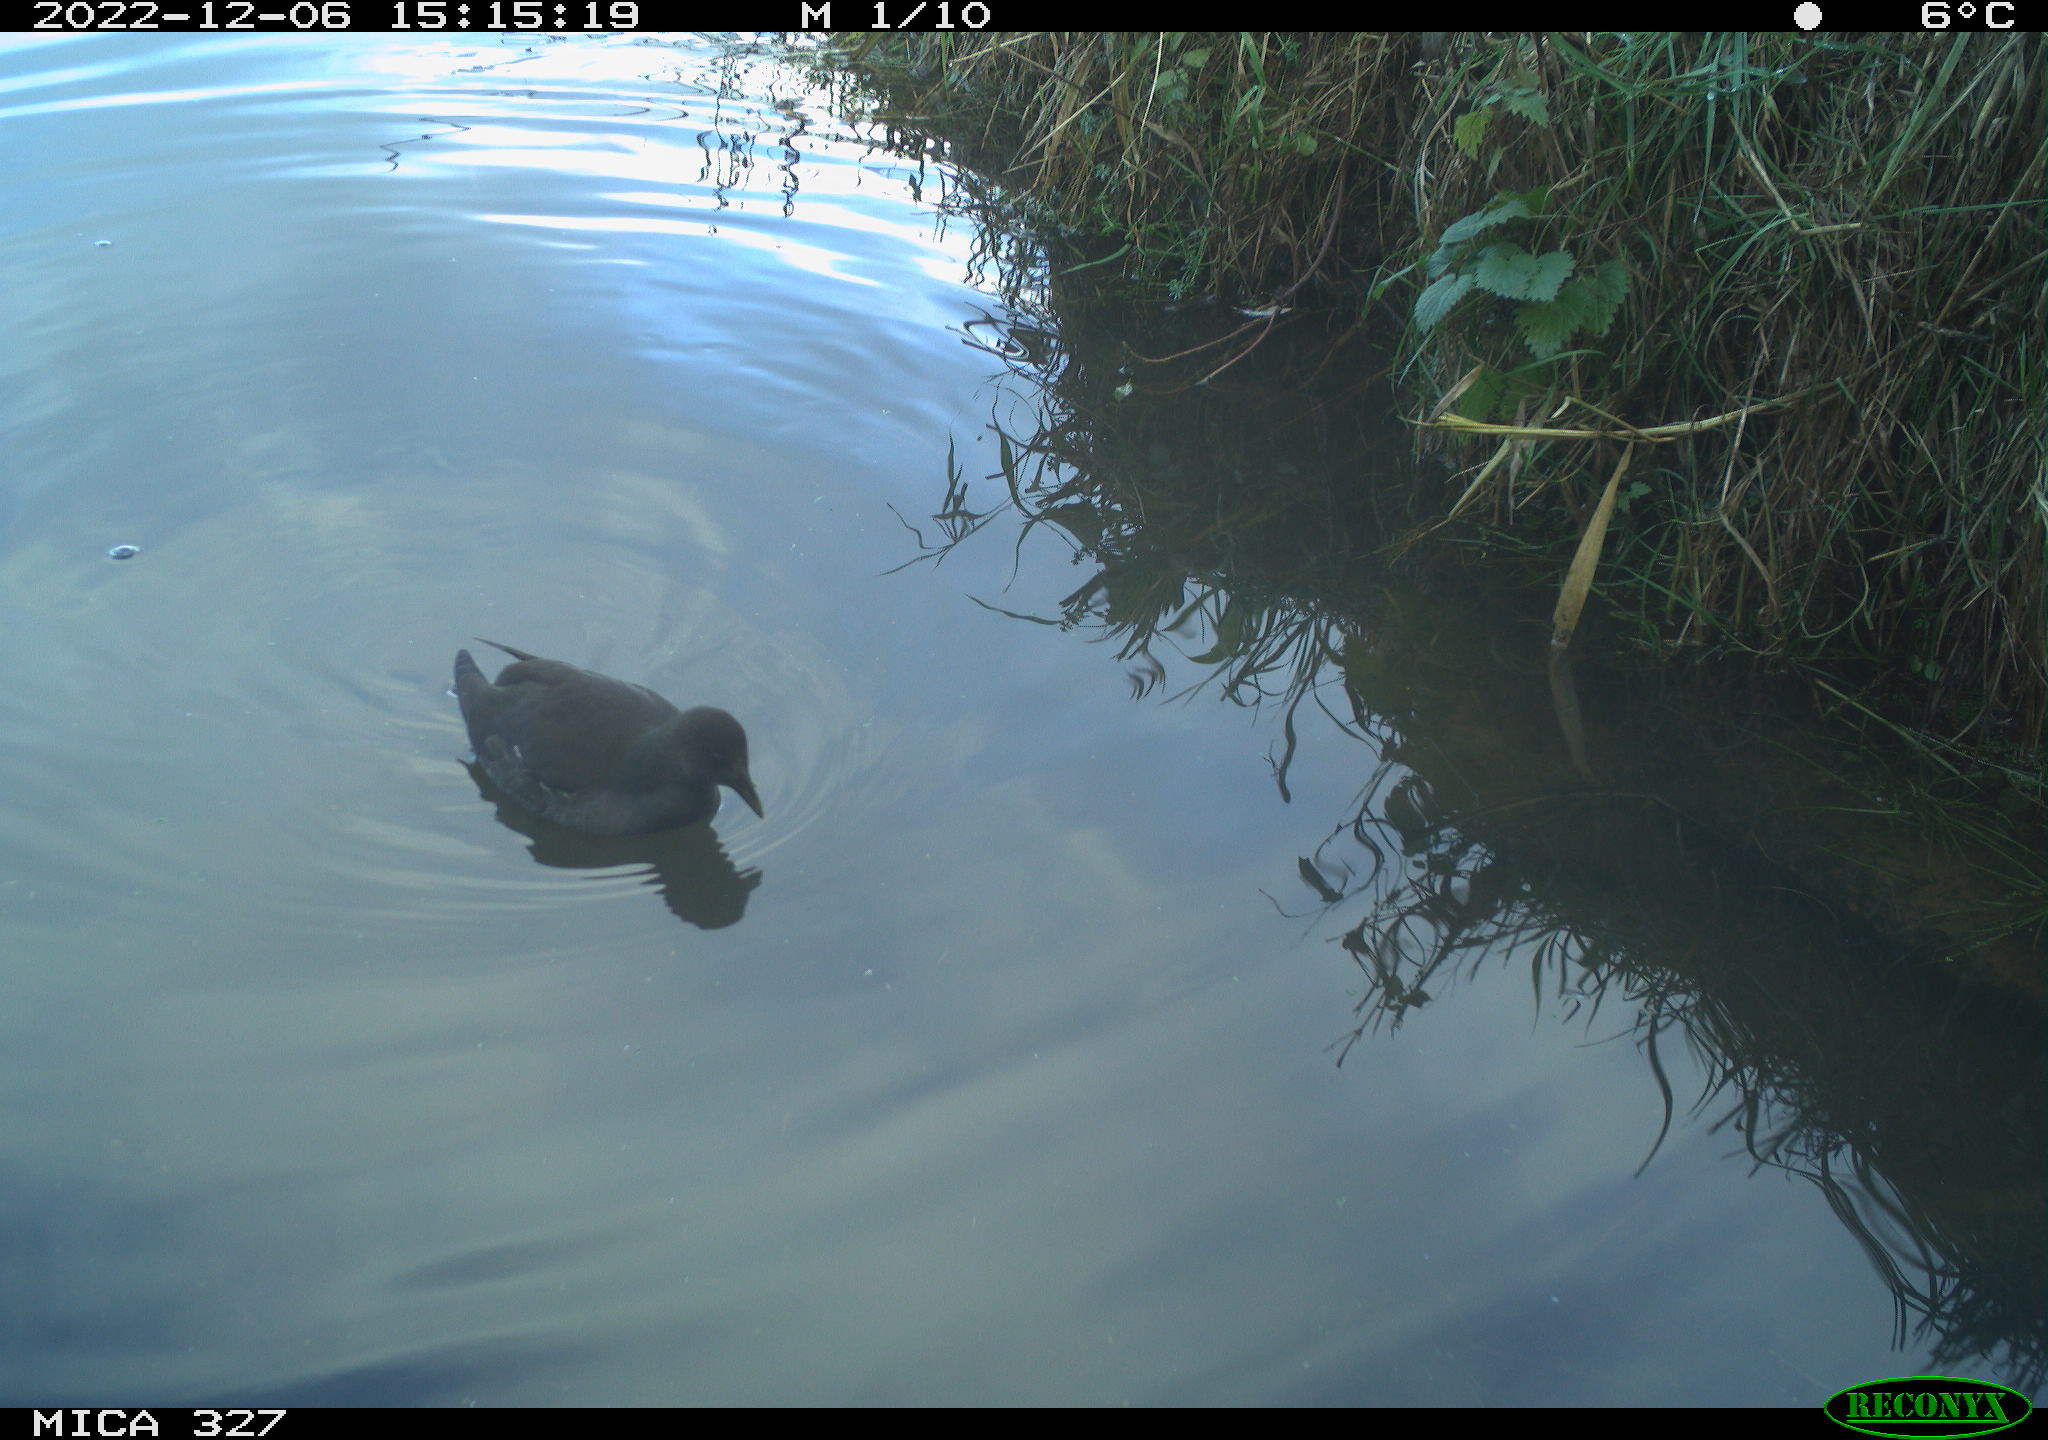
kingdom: Animalia
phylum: Chordata
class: Aves
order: Gruiformes
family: Rallidae
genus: Gallinula
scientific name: Gallinula chloropus
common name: Common moorhen
